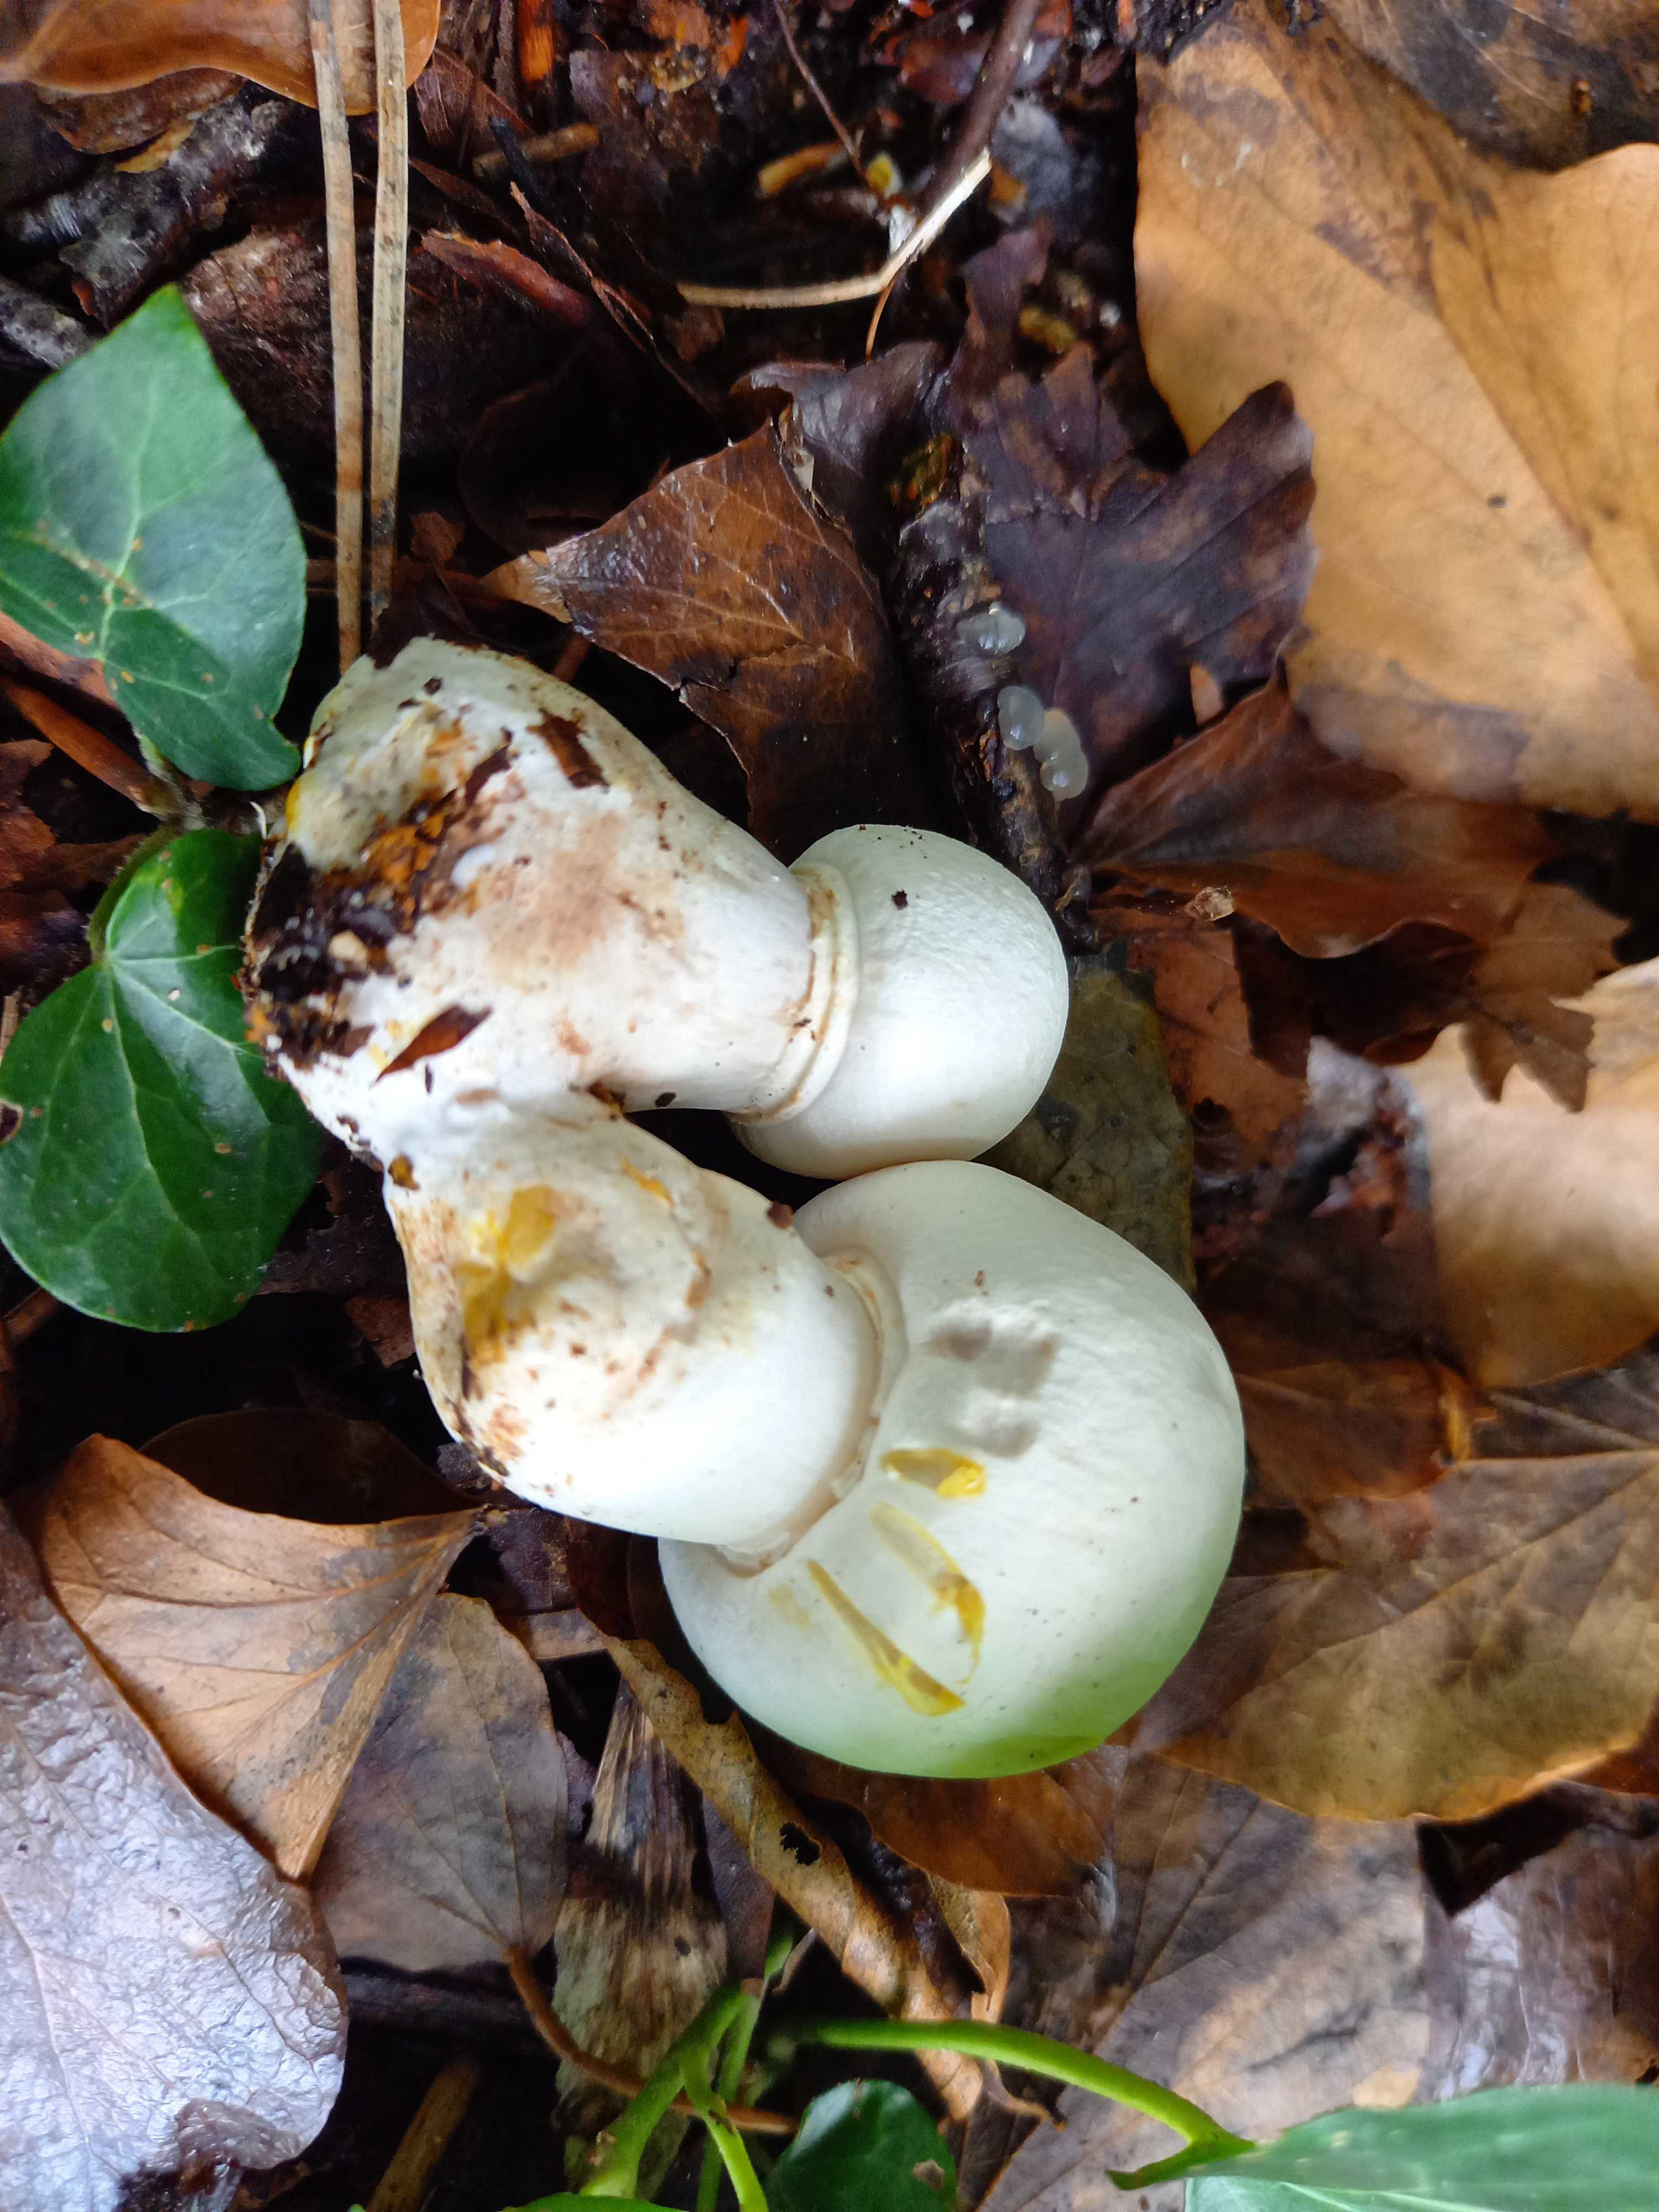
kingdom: Fungi
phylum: Basidiomycota
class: Agaricomycetes
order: Agaricales
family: Agaricaceae
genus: Agaricus
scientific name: Agaricus xanthodermus
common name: karbol-champignon
